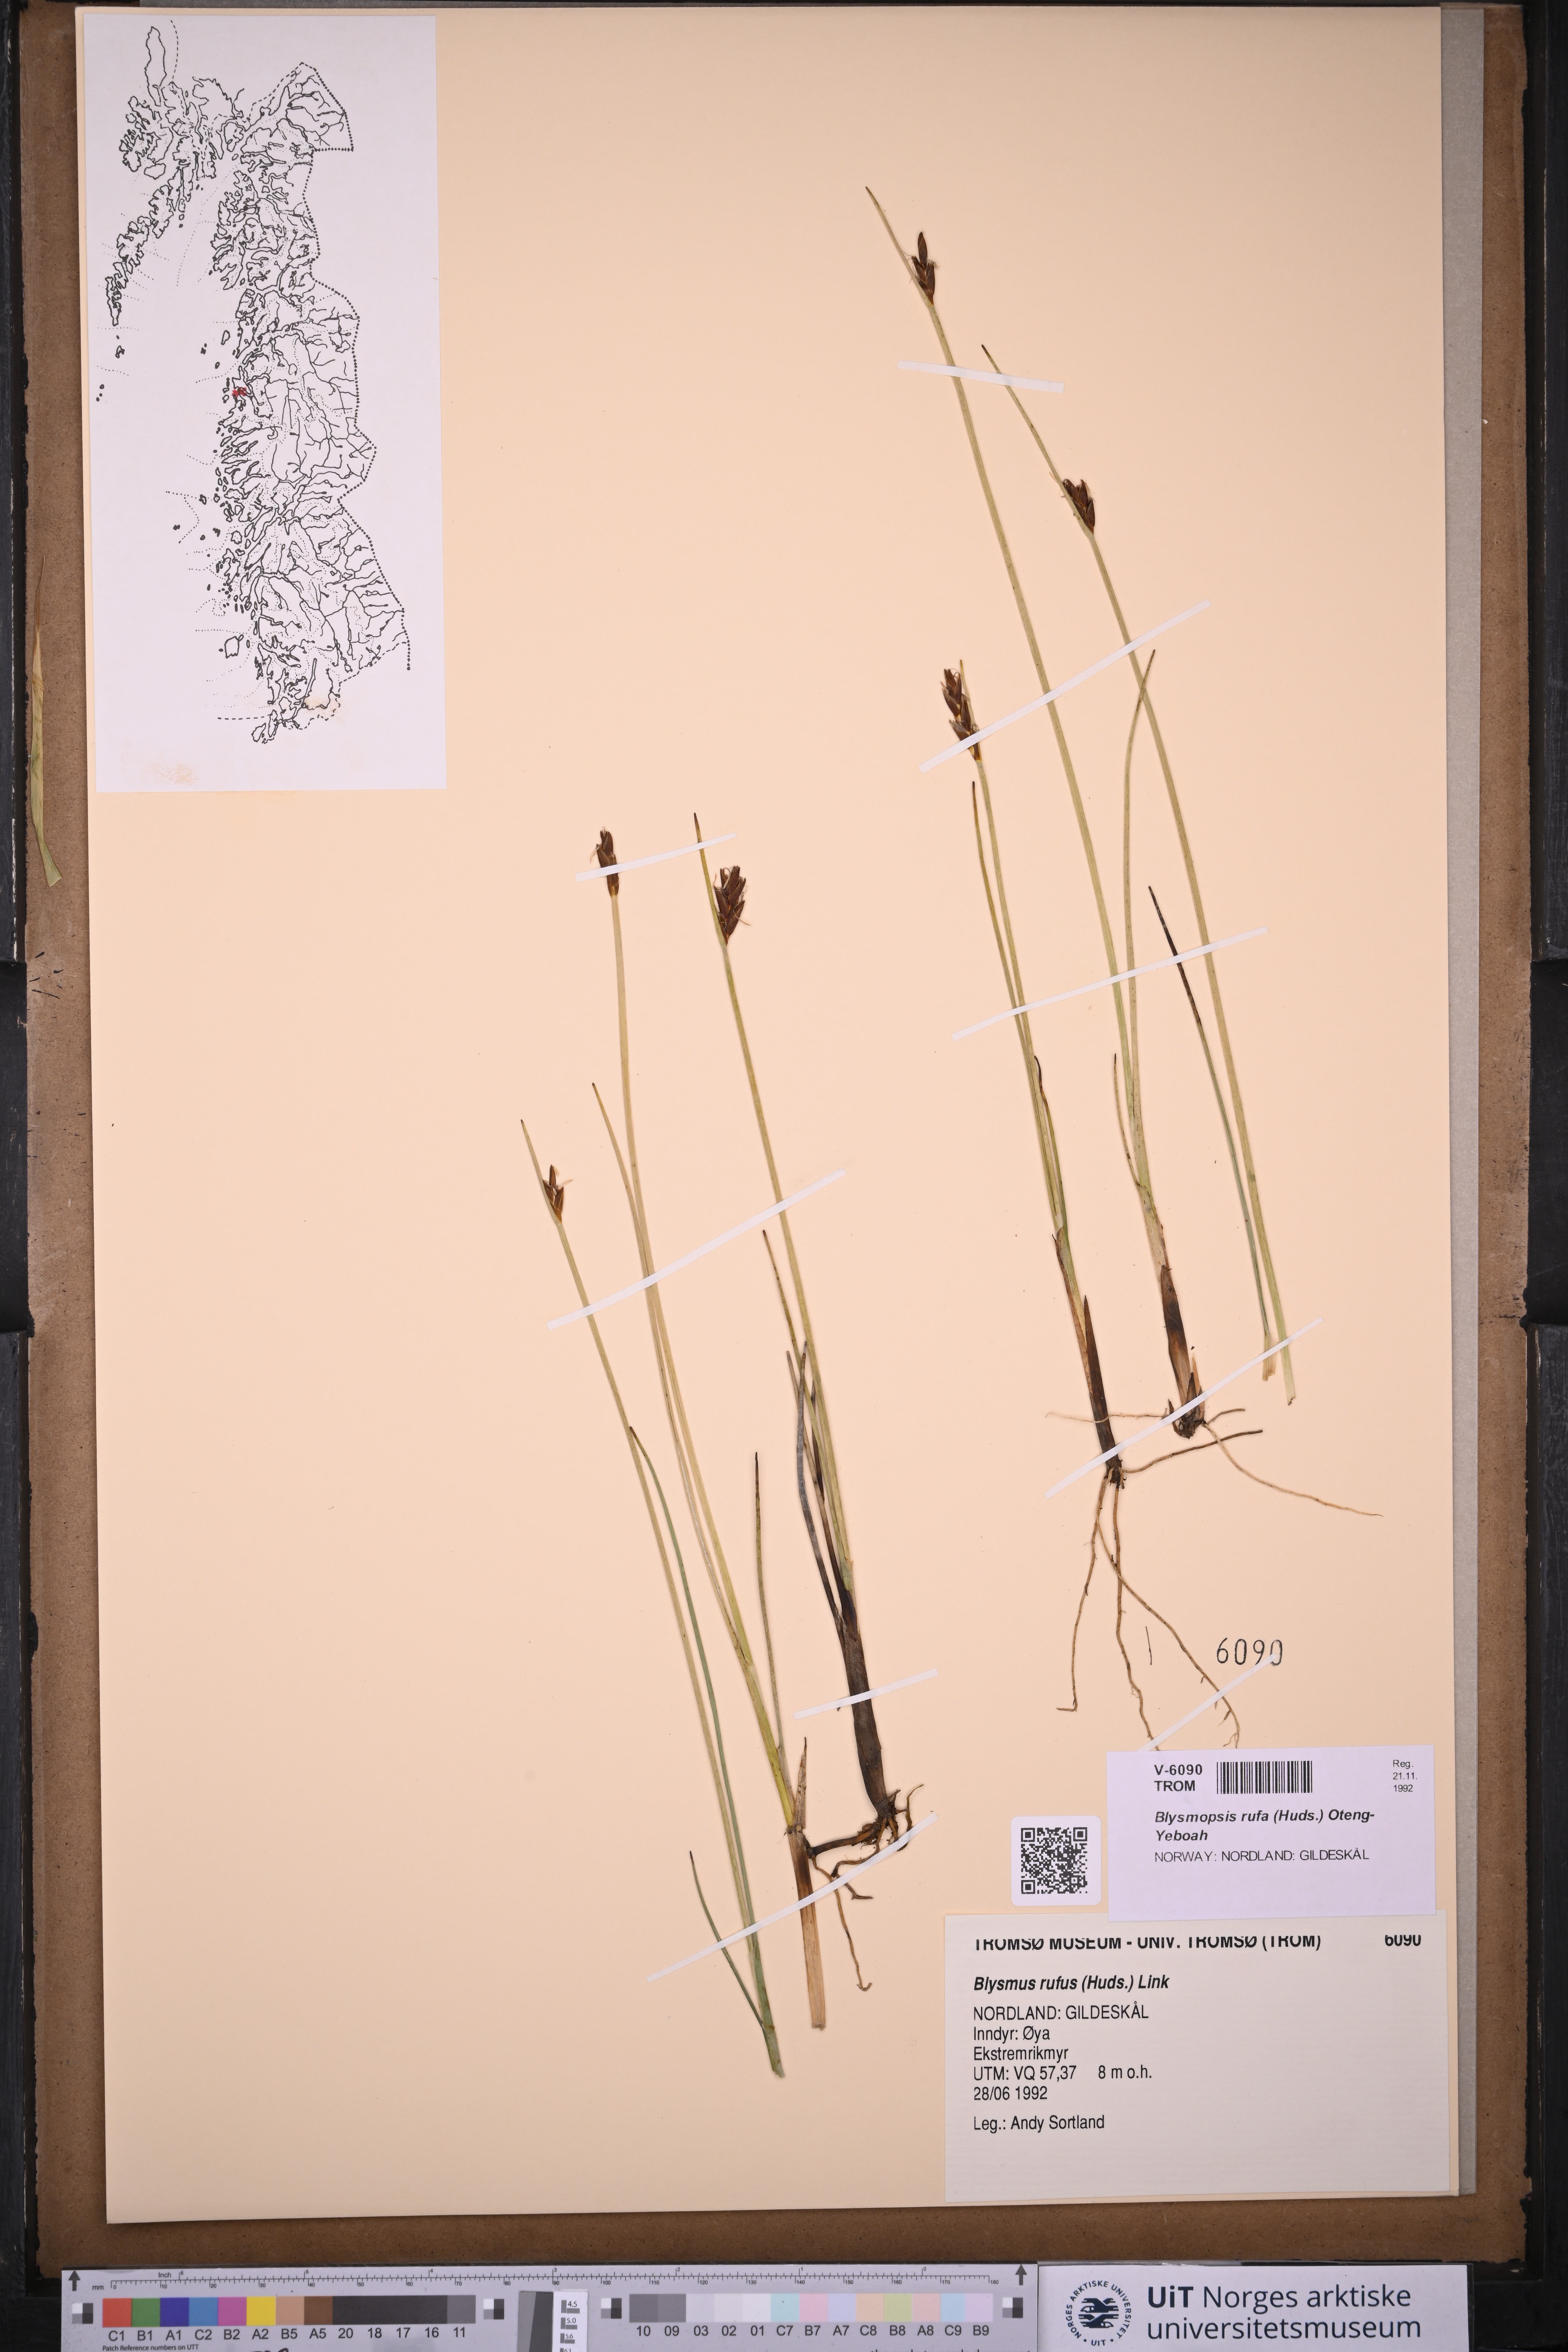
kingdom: Plantae
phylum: Tracheophyta
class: Liliopsida
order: Poales
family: Cyperaceae
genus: Blysmus
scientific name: Blysmus rufus
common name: Saltmarsh flat-sedge
